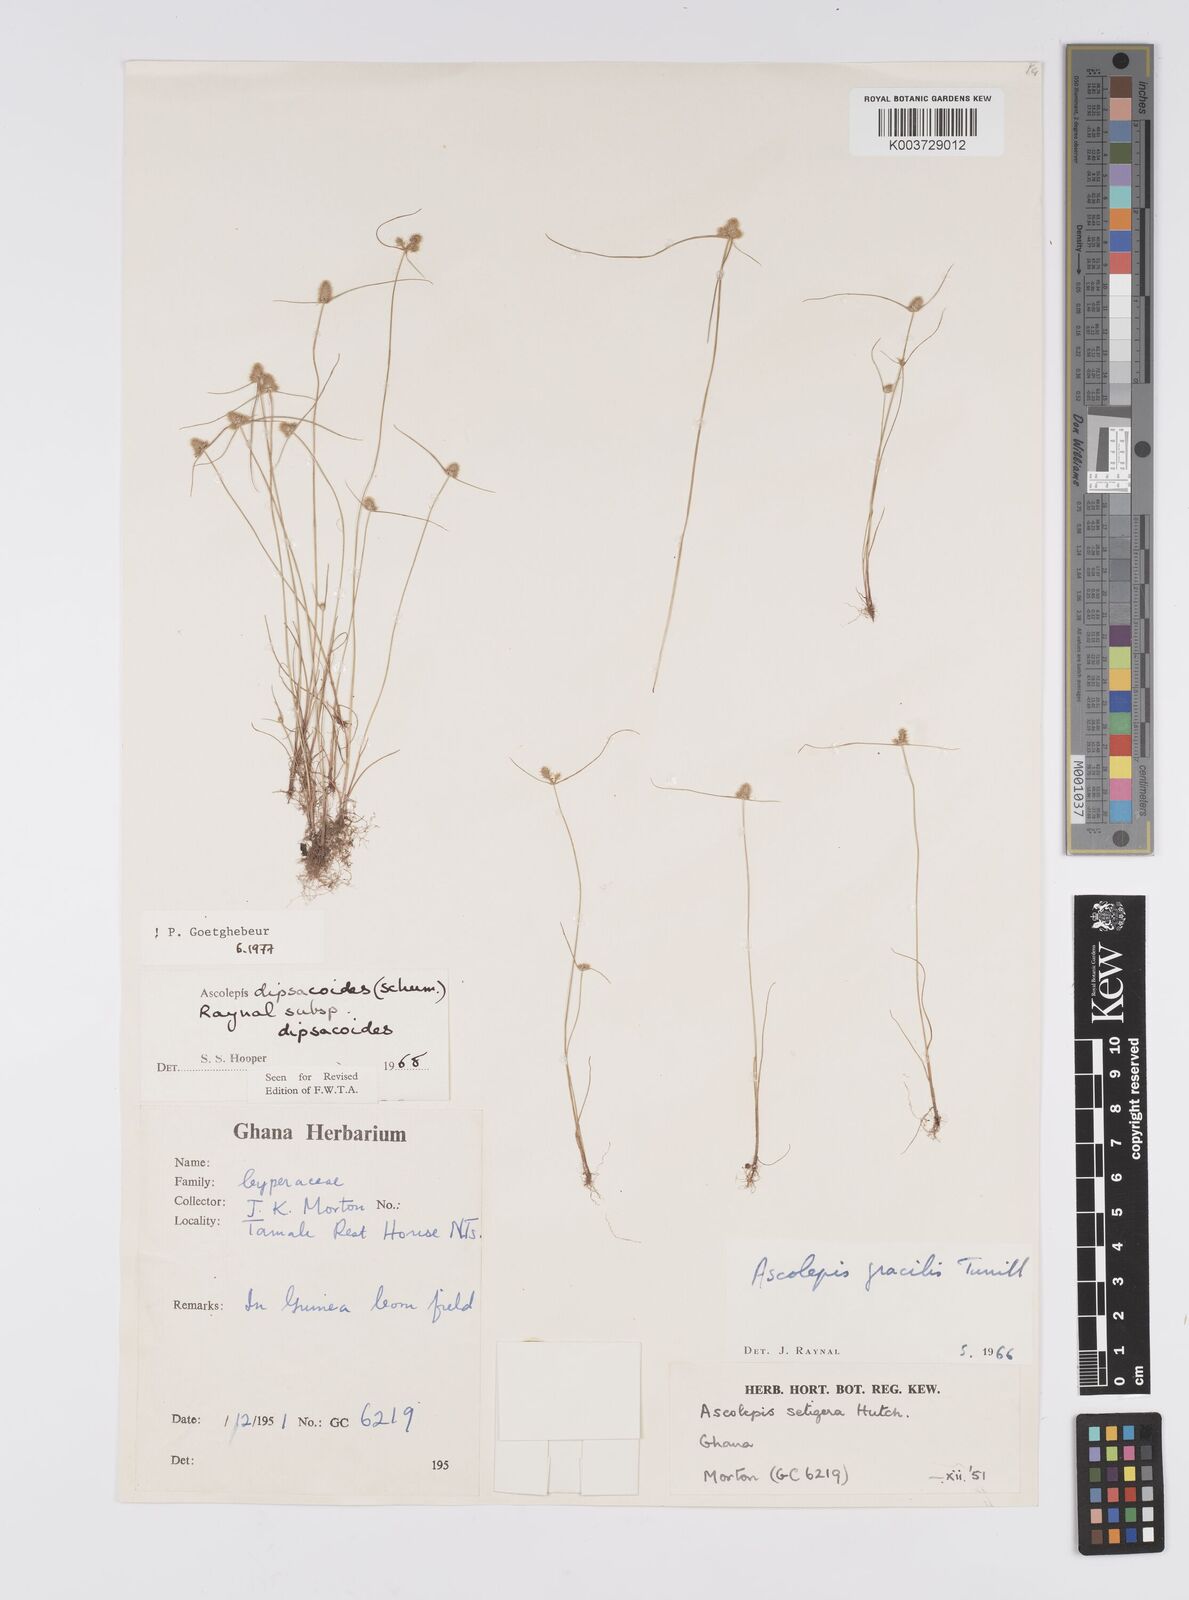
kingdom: Plantae
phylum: Tracheophyta
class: Liliopsida
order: Poales
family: Cyperaceae
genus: Cyperus
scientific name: Cyperus dipsacoides
